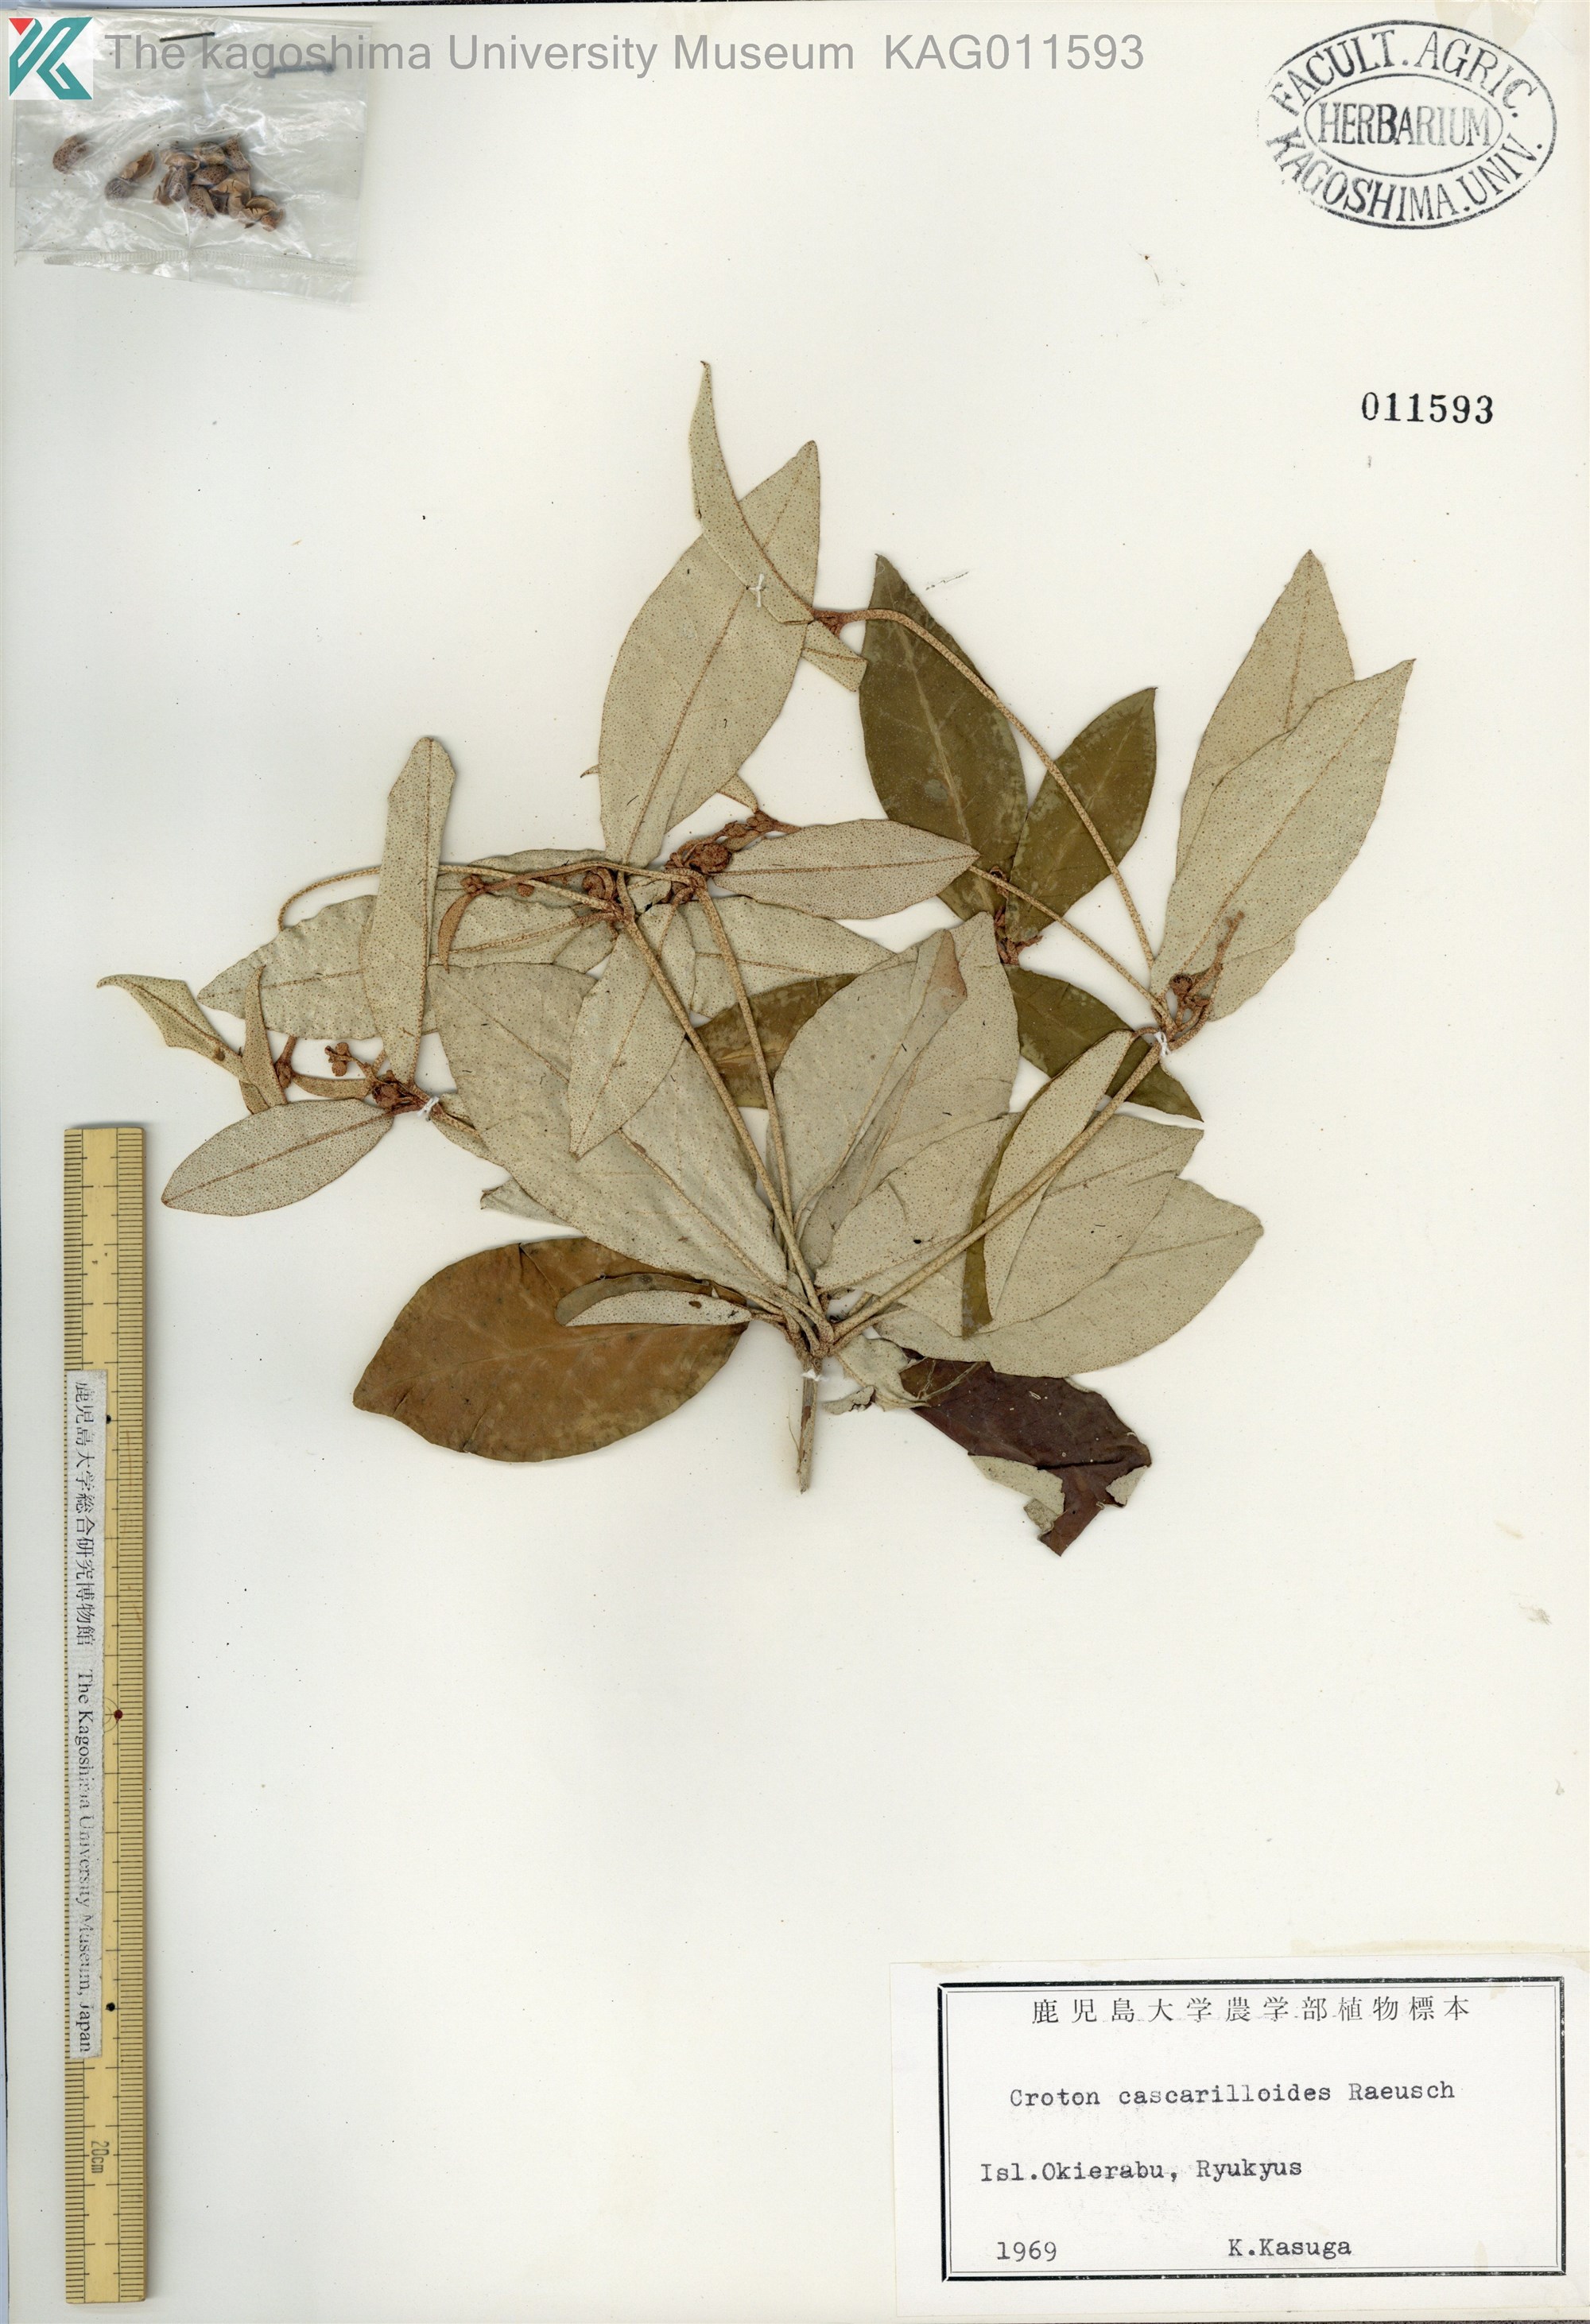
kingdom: Plantae
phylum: Tracheophyta
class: Magnoliopsida
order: Malpighiales
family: Euphorbiaceae
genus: Croton
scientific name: Croton cascarilloides
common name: グミモドキ
